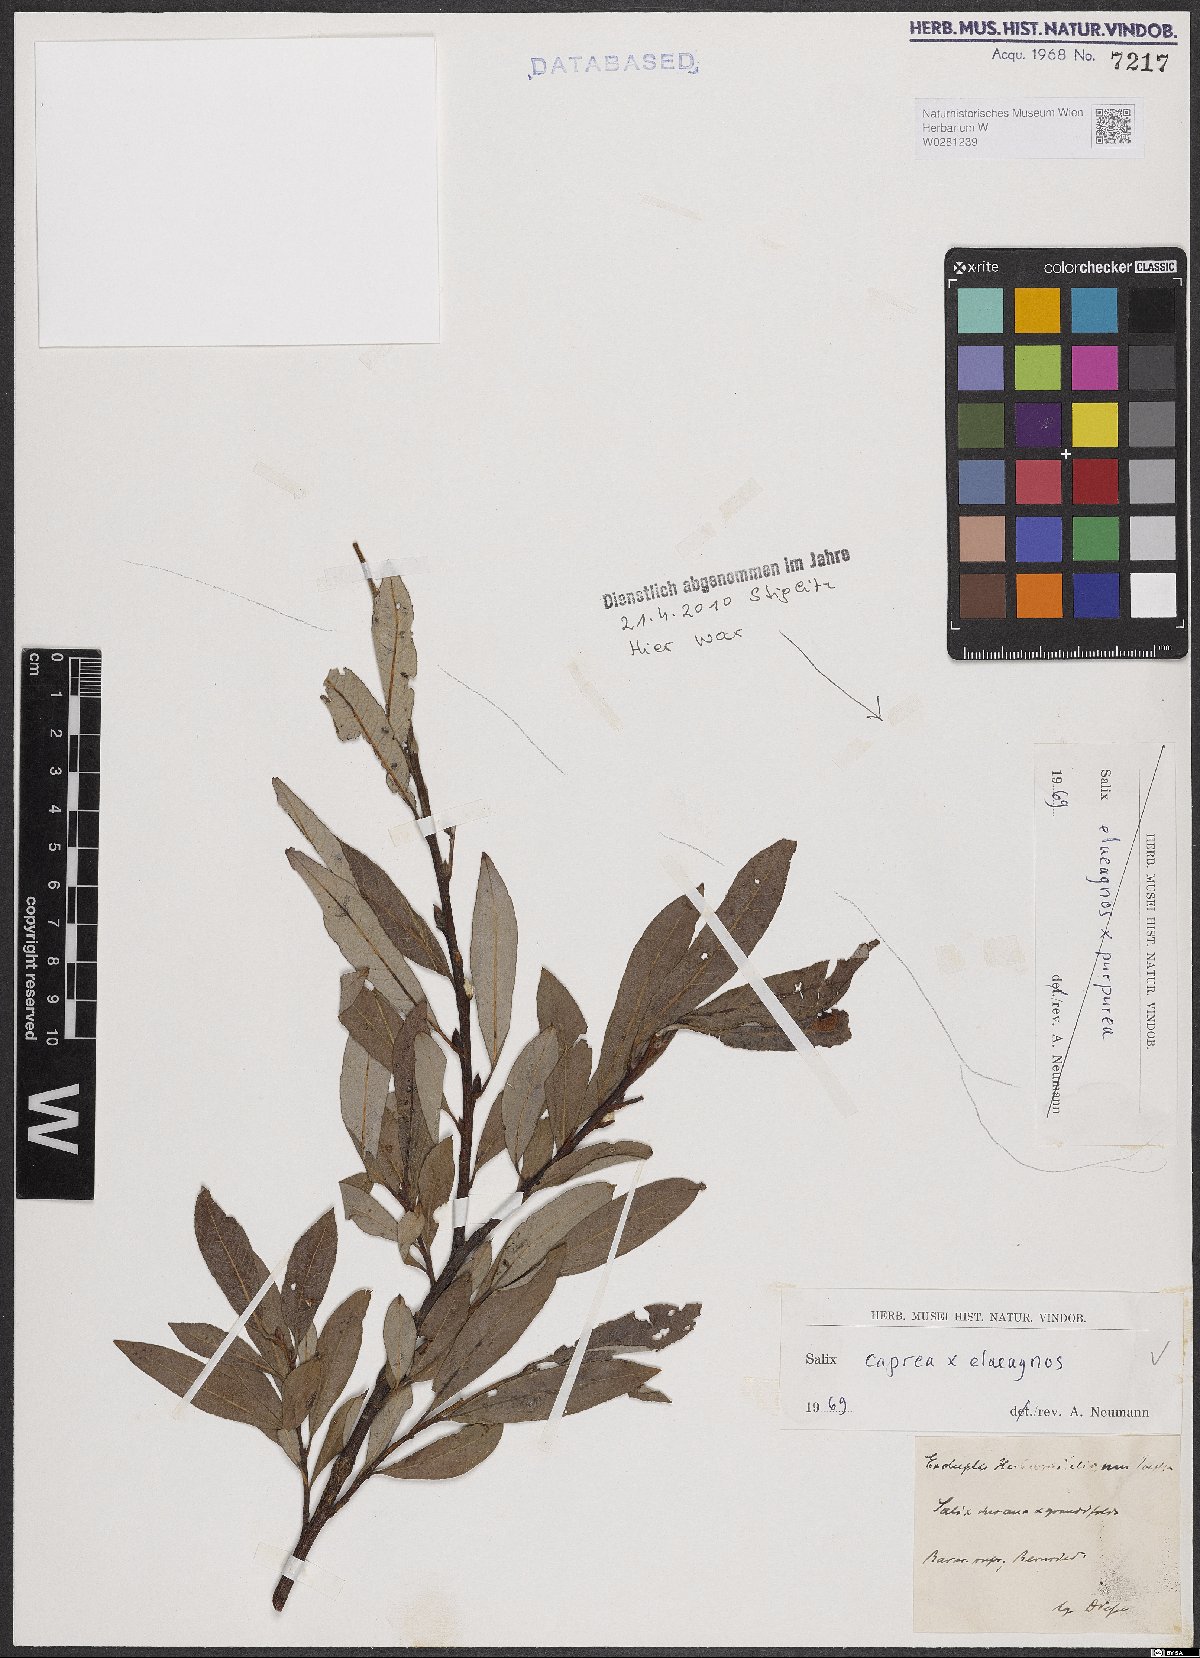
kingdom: Plantae
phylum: Tracheophyta
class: Magnoliopsida
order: Malpighiales
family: Salicaceae
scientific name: Salicaceae
